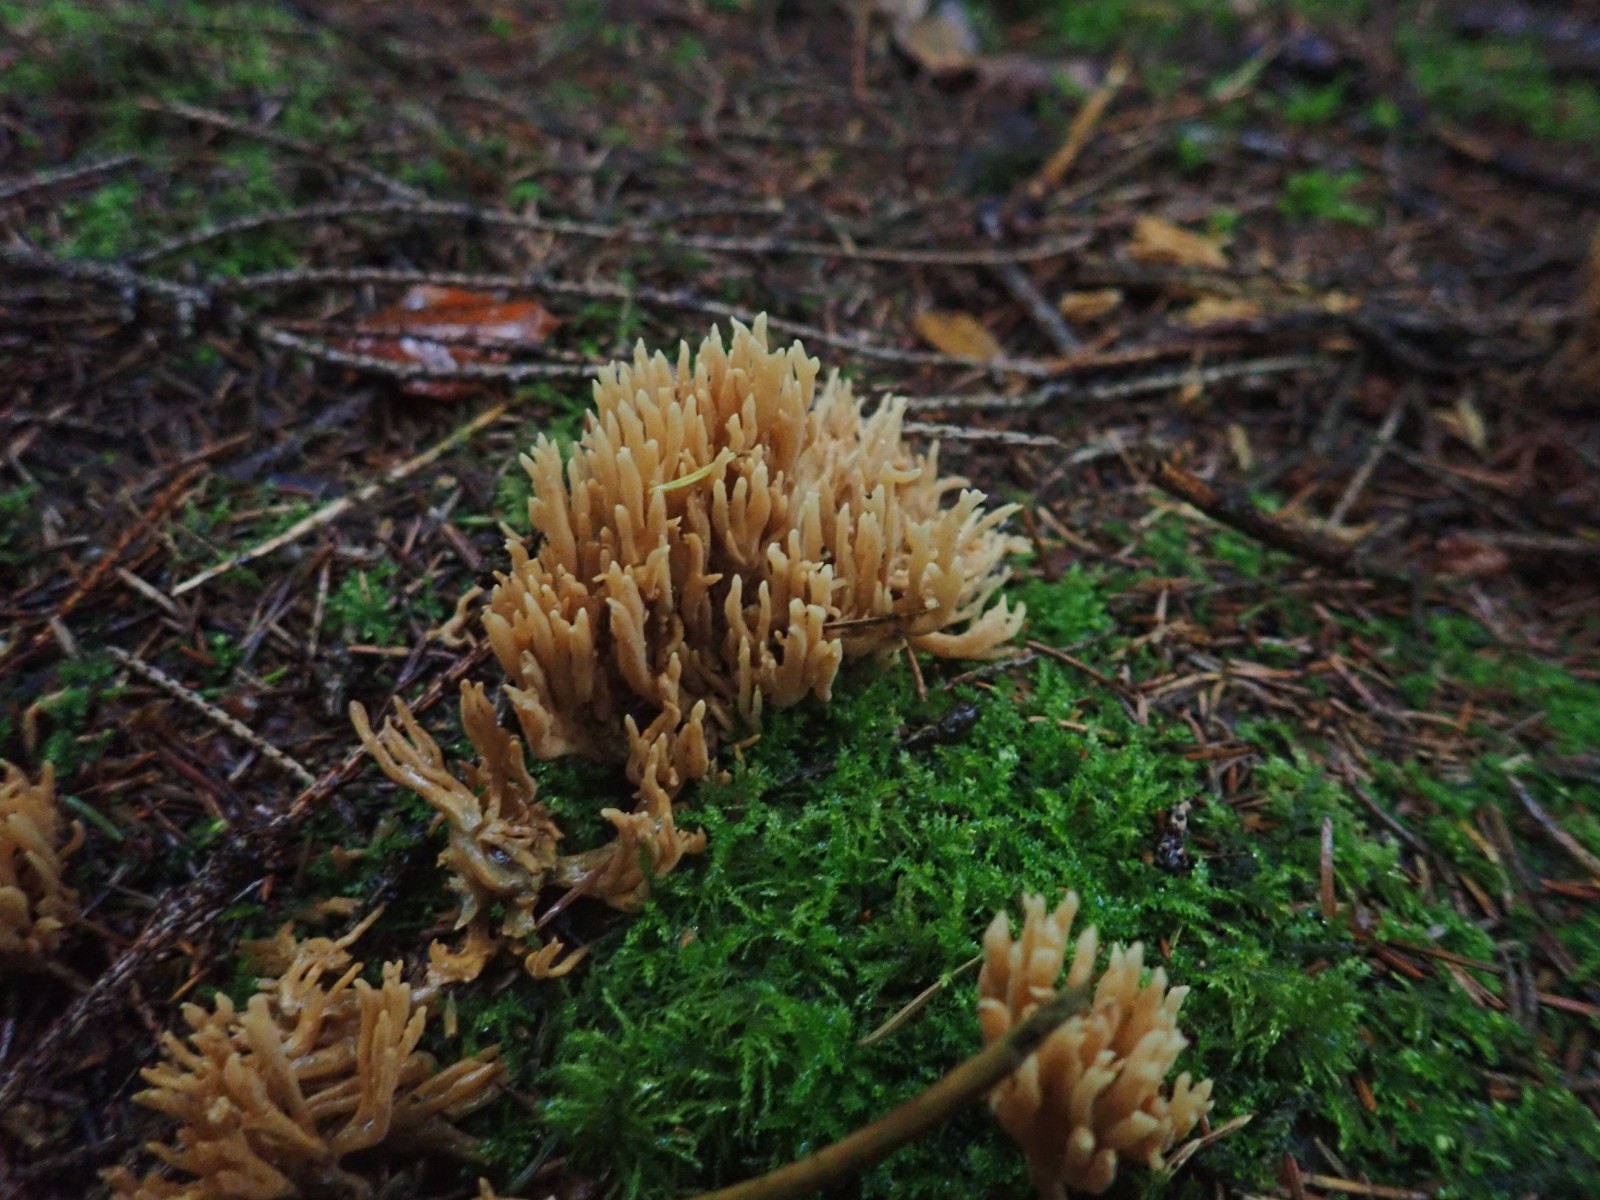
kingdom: Fungi
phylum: Basidiomycota
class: Agaricomycetes
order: Gomphales
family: Gomphaceae
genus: Phaeoclavulina
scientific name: Phaeoclavulina eumorpha
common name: gran-koralsvamp
